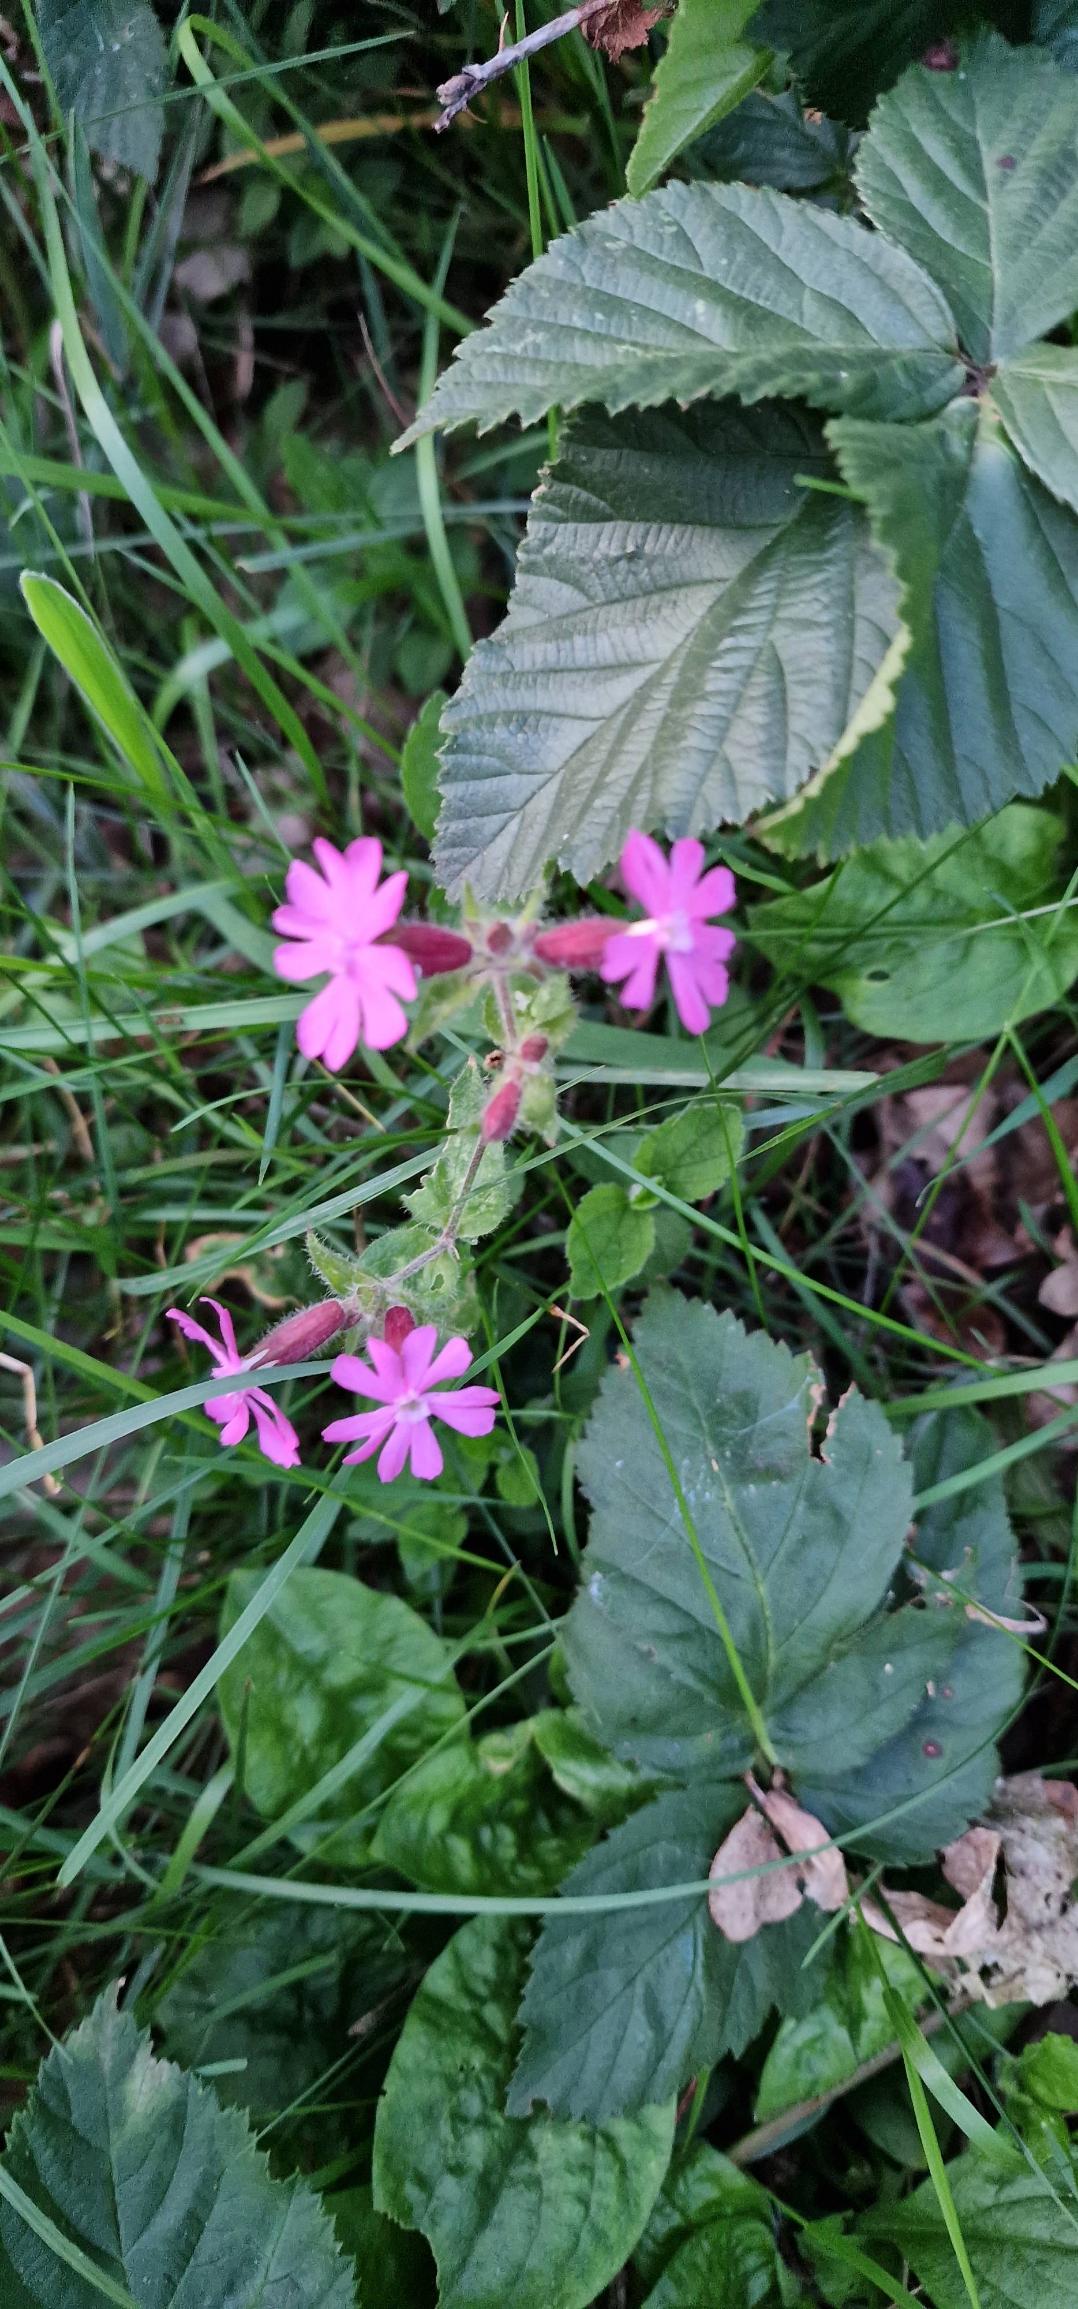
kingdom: Plantae
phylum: Tracheophyta
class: Magnoliopsida
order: Caryophyllales
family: Caryophyllaceae
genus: Silene
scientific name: Silene dioica
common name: Dagpragtstjerne
